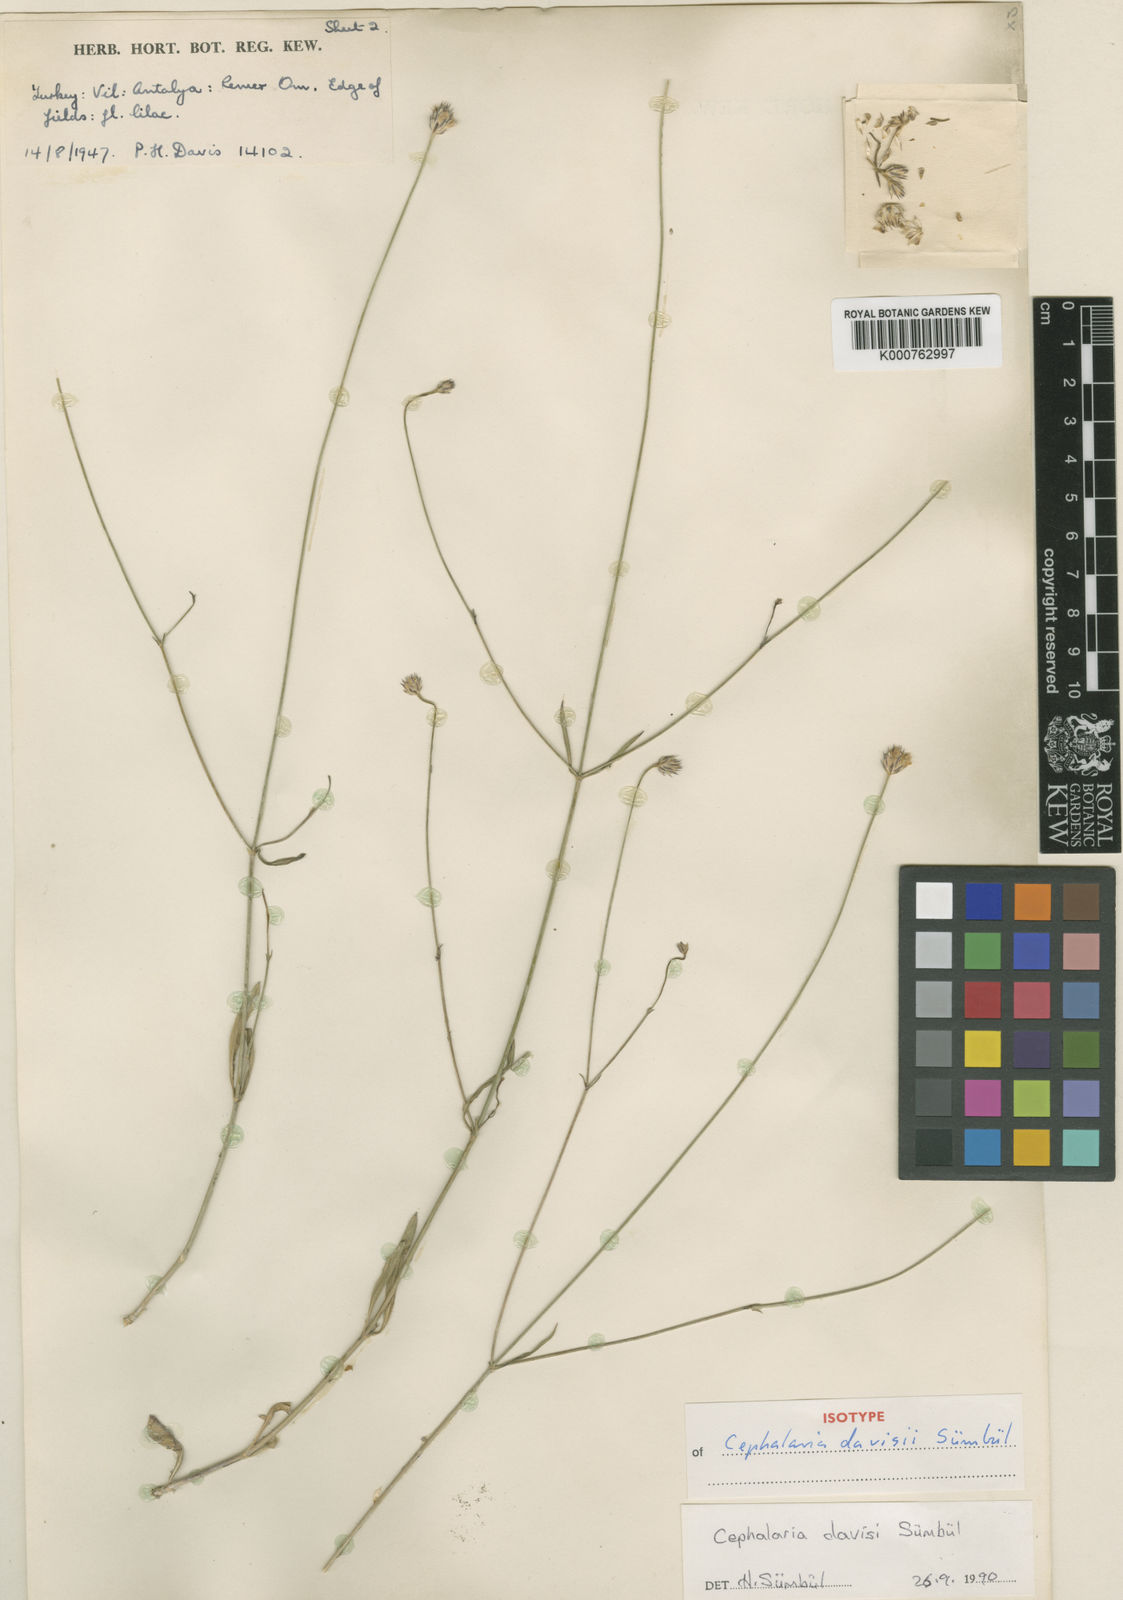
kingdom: Plantae
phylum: Tracheophyta
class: Magnoliopsida
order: Dipsacales
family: Caprifoliaceae
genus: Cephalaria
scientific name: Cephalaria
